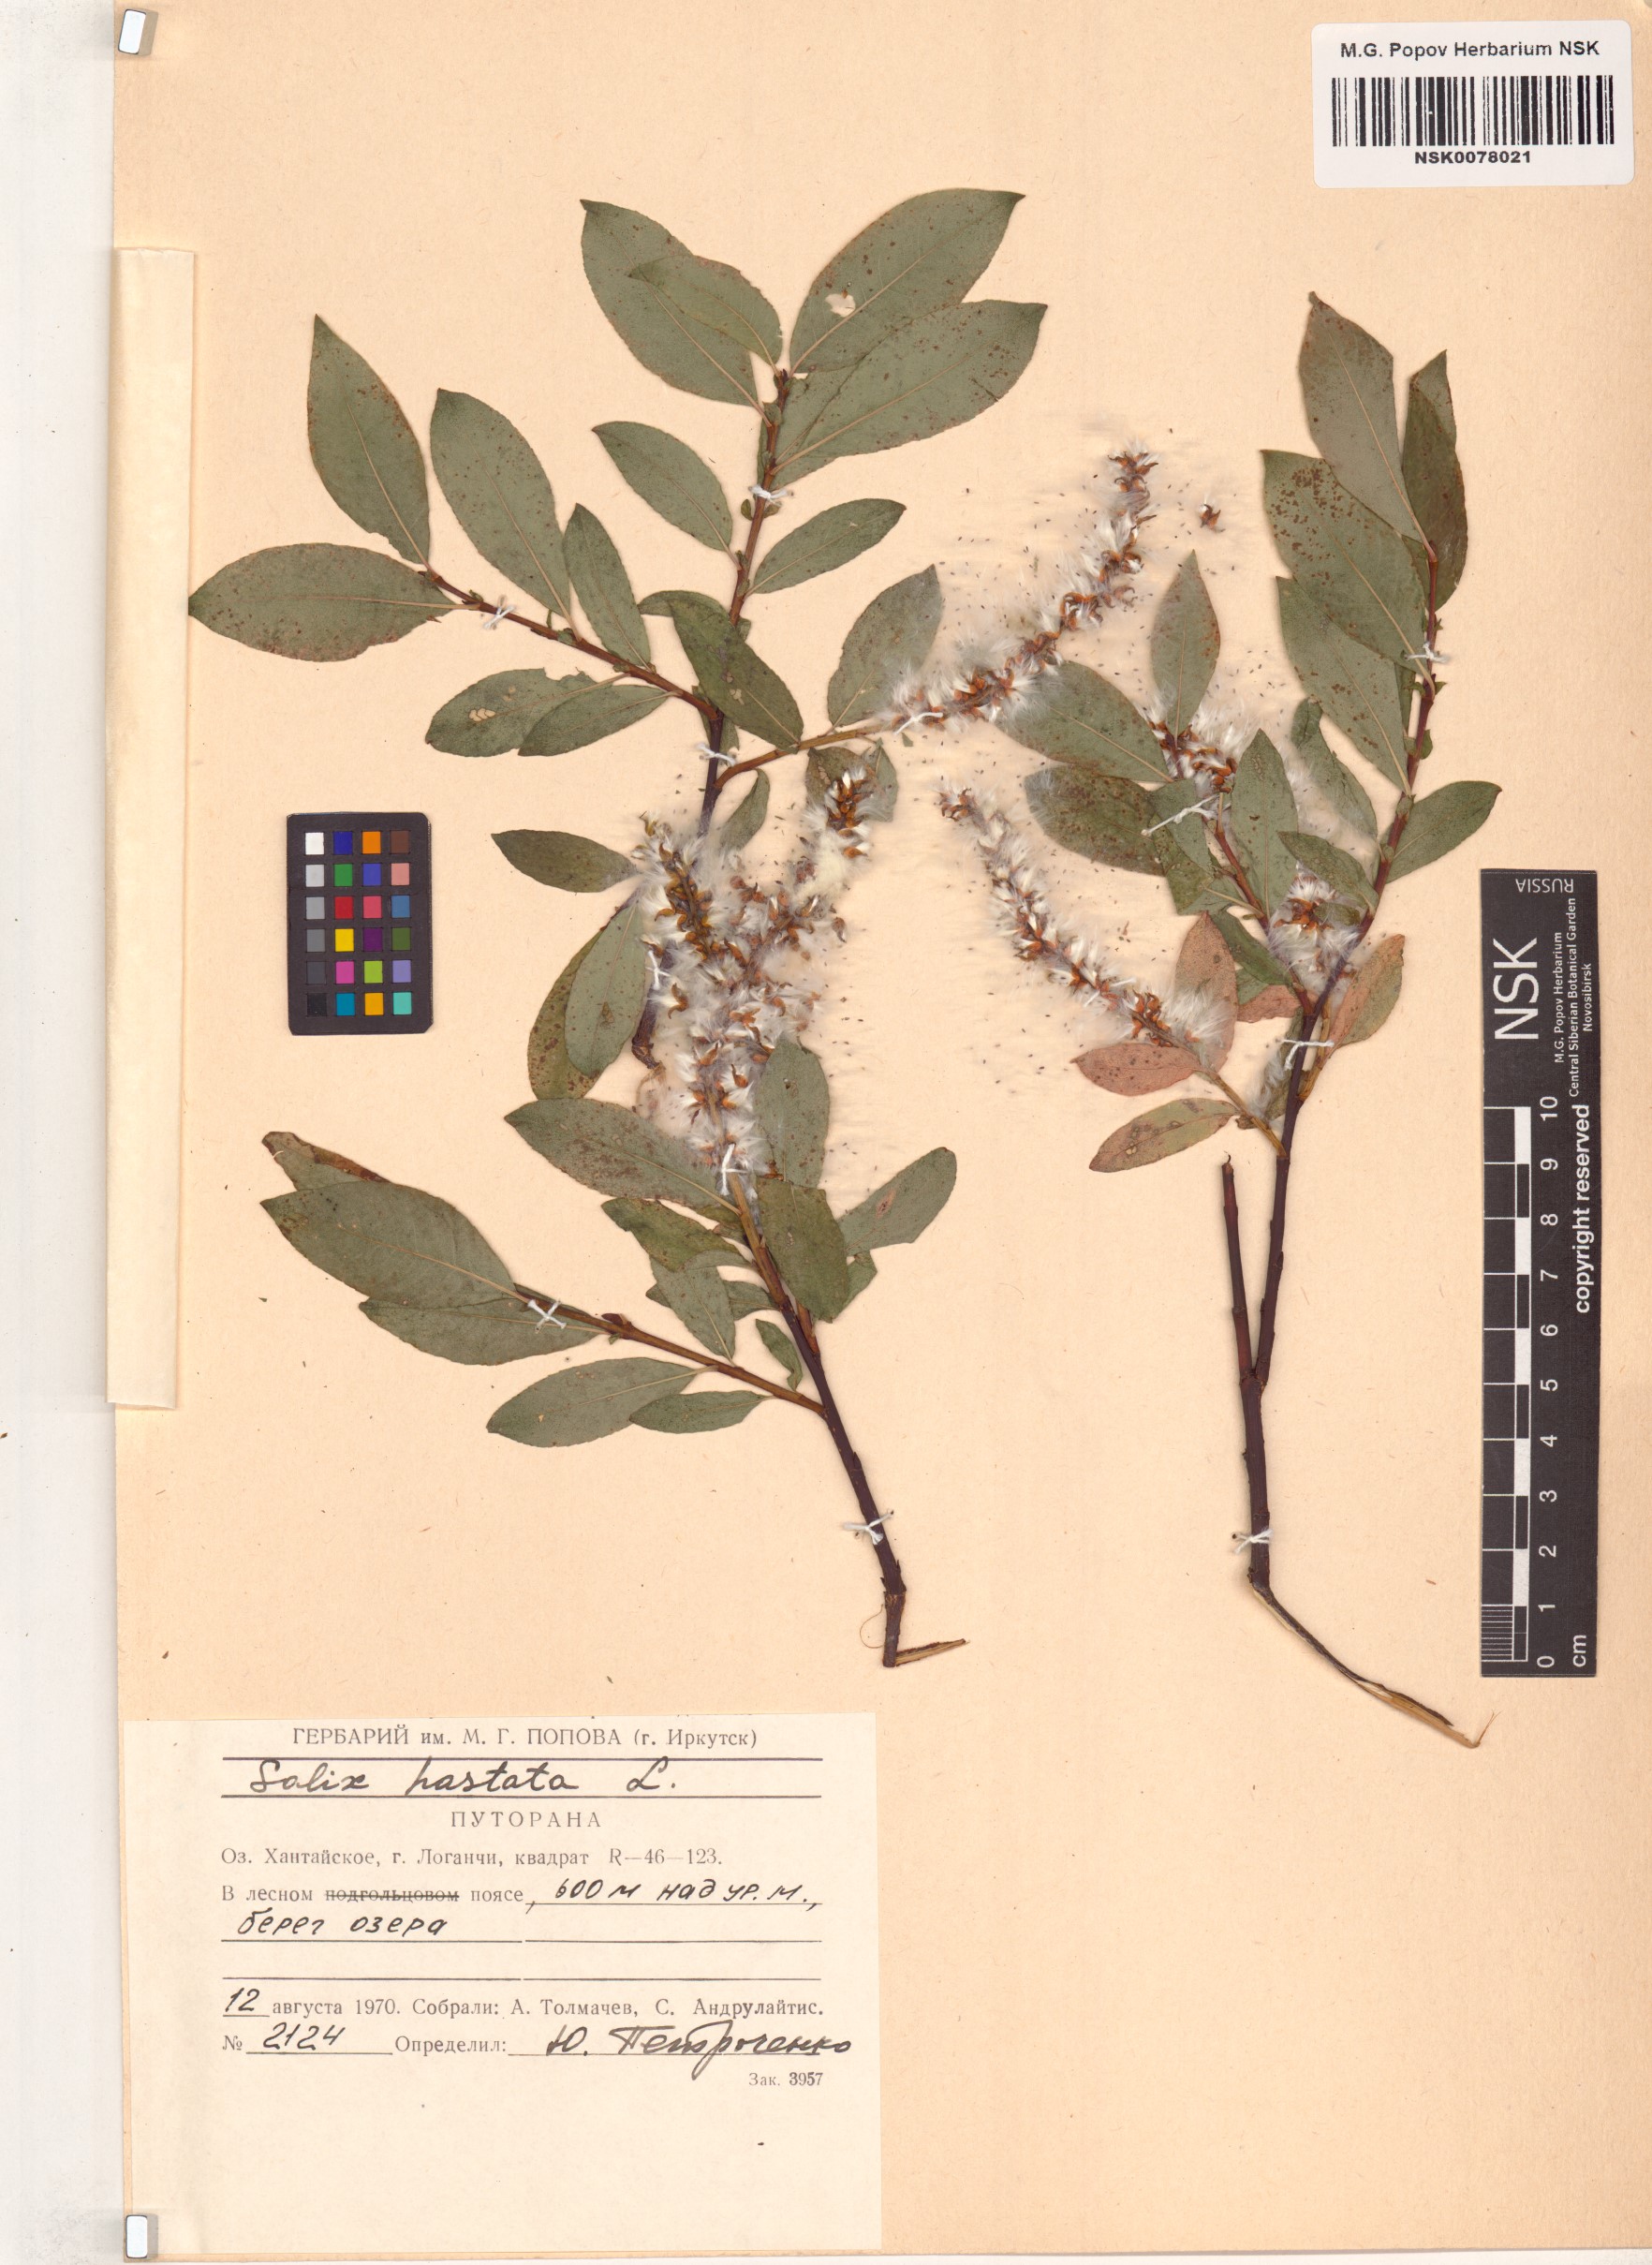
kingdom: Plantae
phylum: Tracheophyta
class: Magnoliopsida
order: Malpighiales
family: Salicaceae
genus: Salix
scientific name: Salix hastata
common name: Halberd willow
